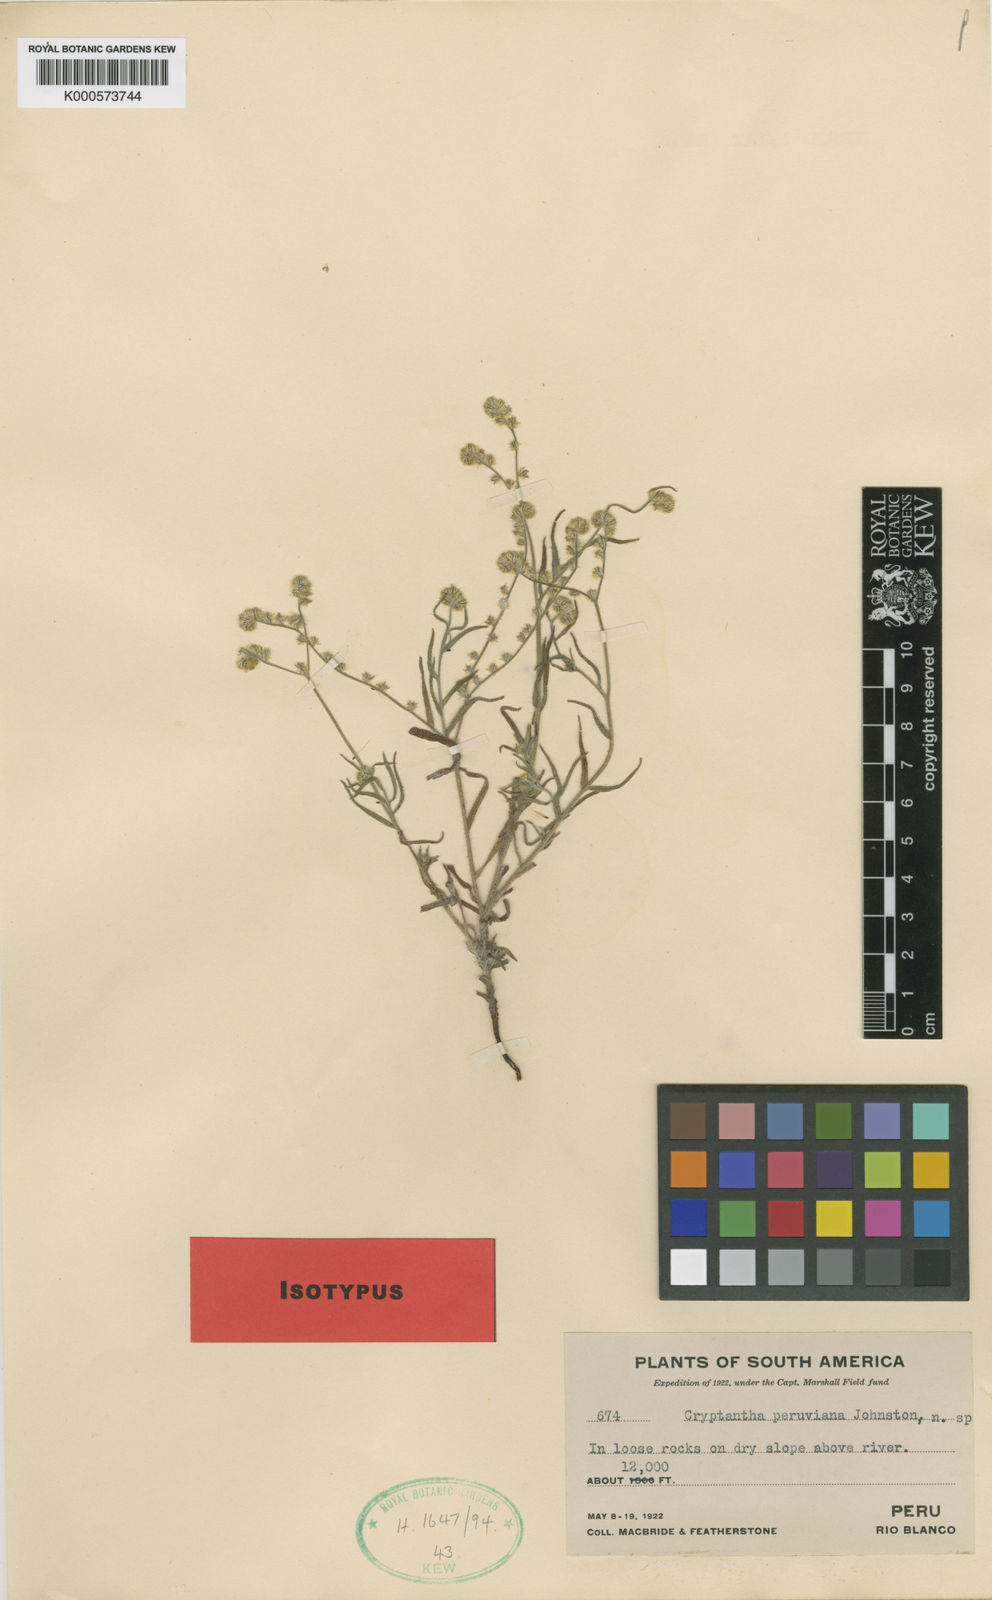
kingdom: Plantae
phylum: Tracheophyta
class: Magnoliopsida
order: Boraginales
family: Boraginaceae
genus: Cryptantha
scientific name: Cryptantha peruviana
